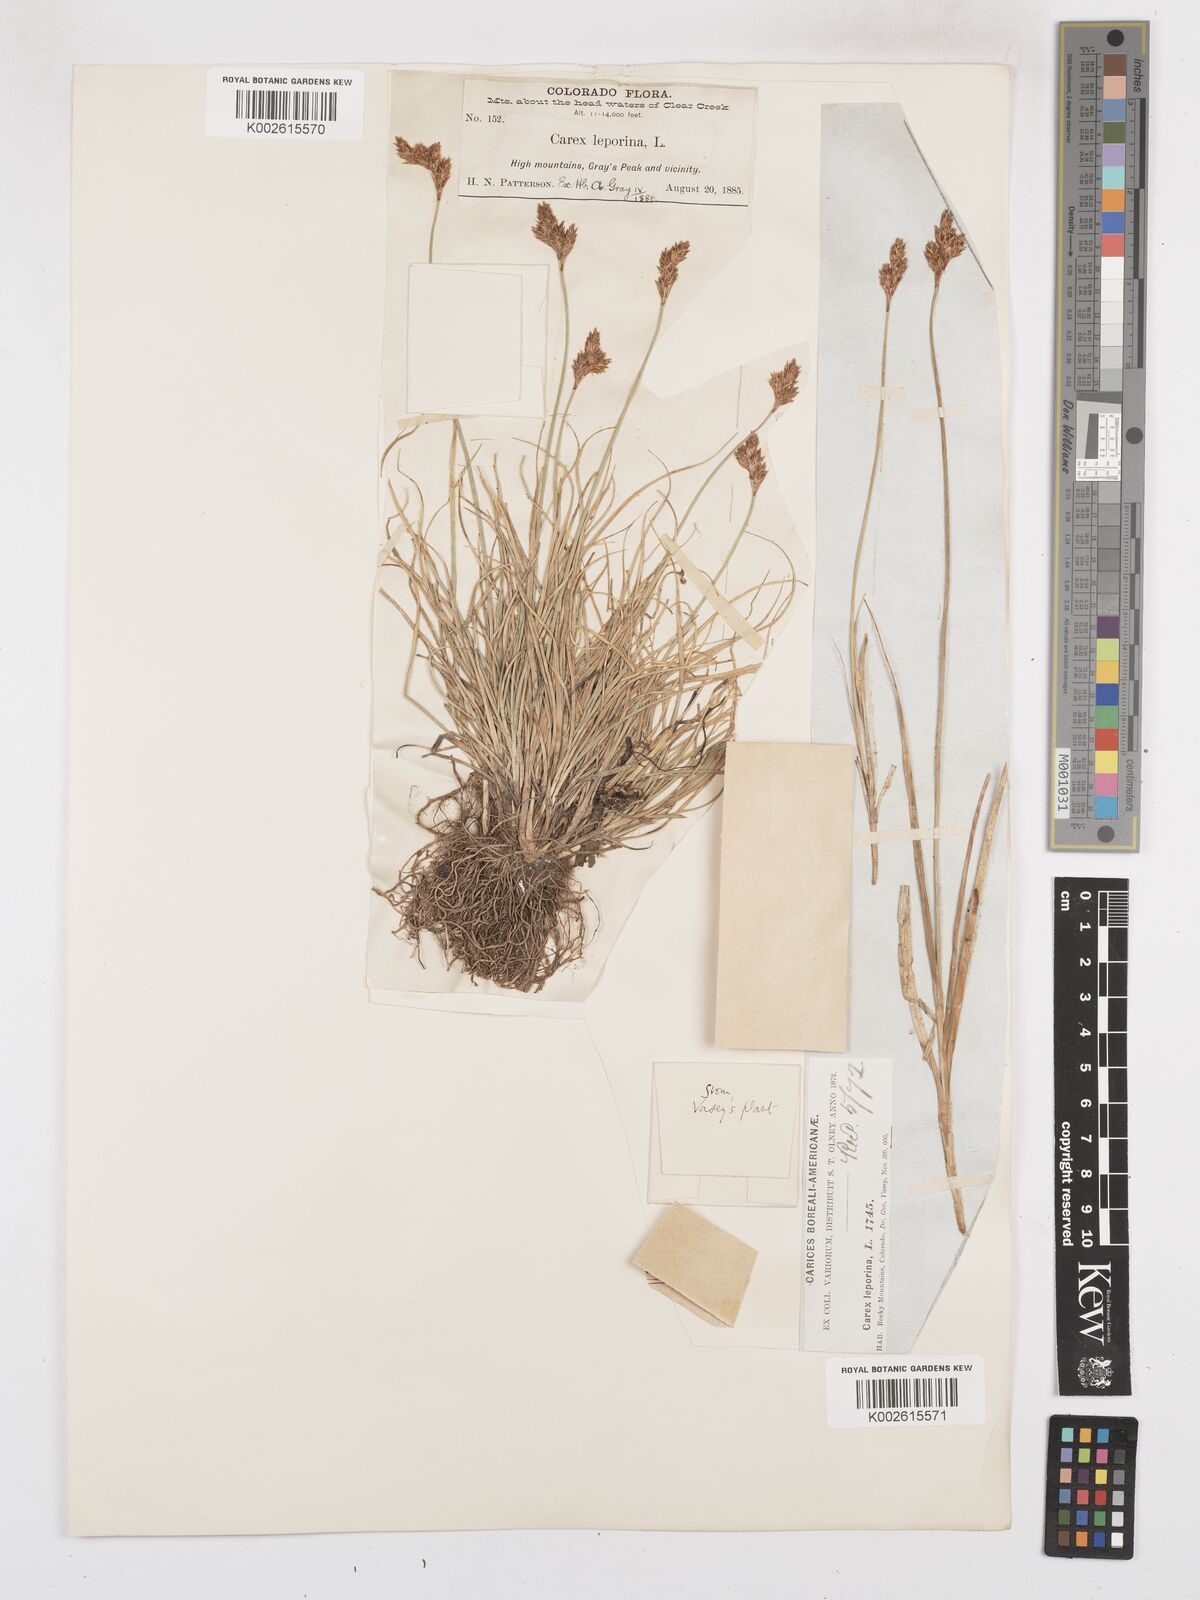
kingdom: Plantae
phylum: Tracheophyta
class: Liliopsida
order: Poales
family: Cyperaceae
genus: Carex
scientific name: Carex macloviana
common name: Falkland island sedge
